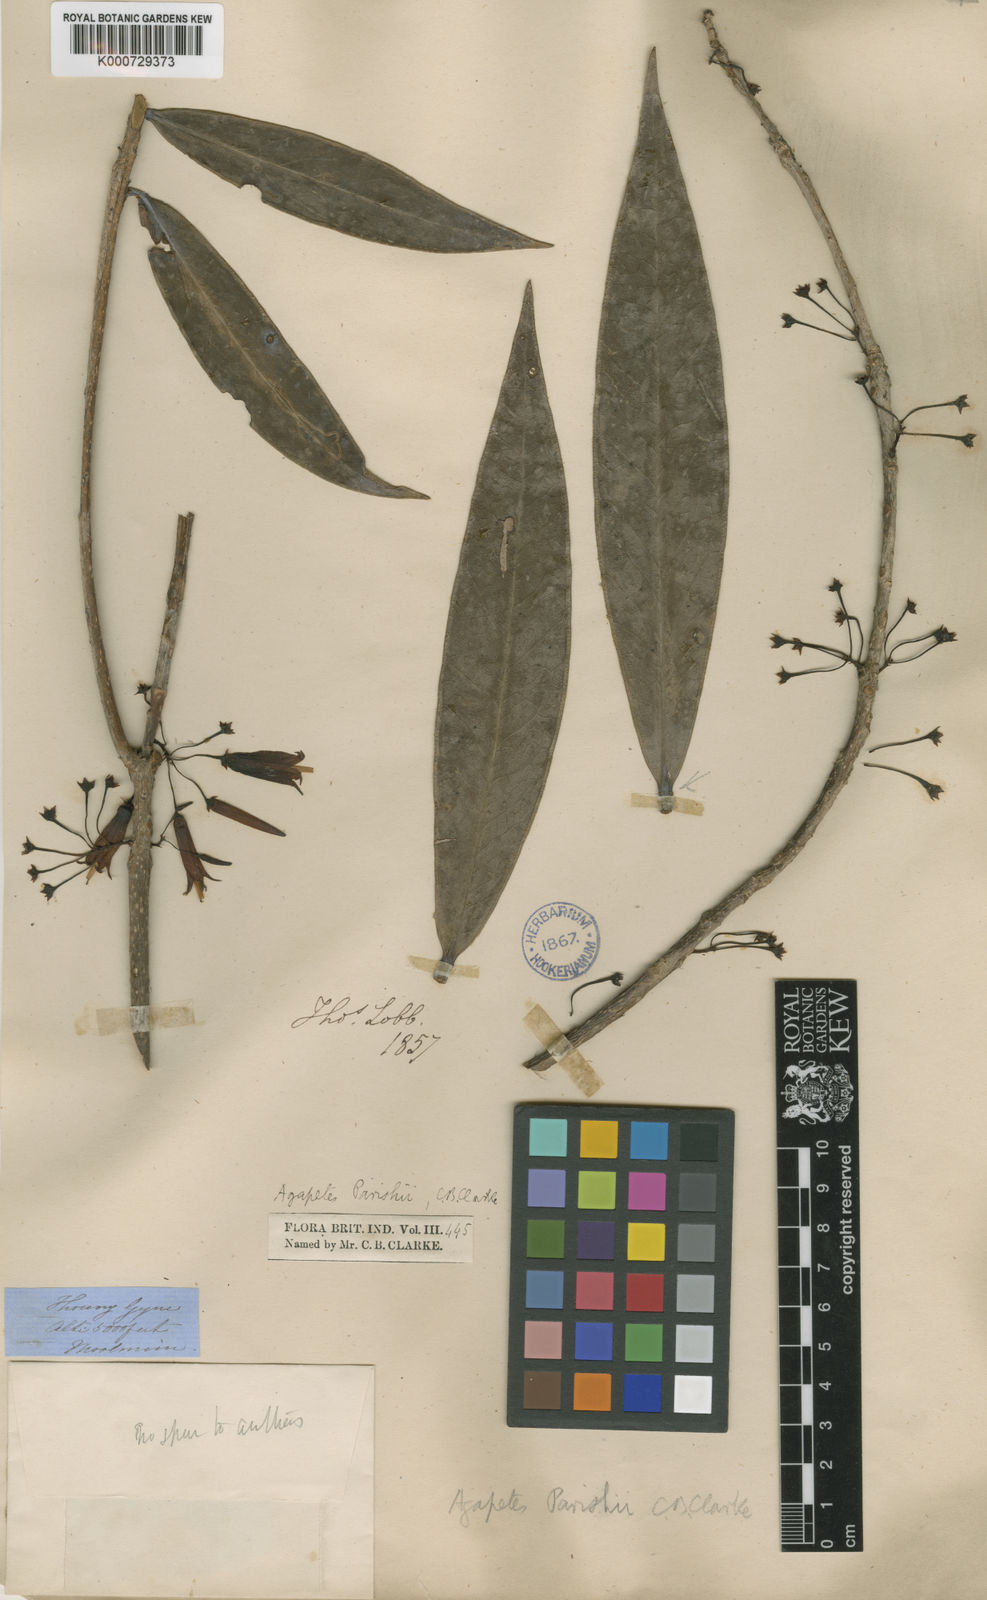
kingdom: Plantae
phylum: Tracheophyta
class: Magnoliopsida
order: Ericales
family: Ericaceae
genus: Agapetes
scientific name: Agapetes parishii
